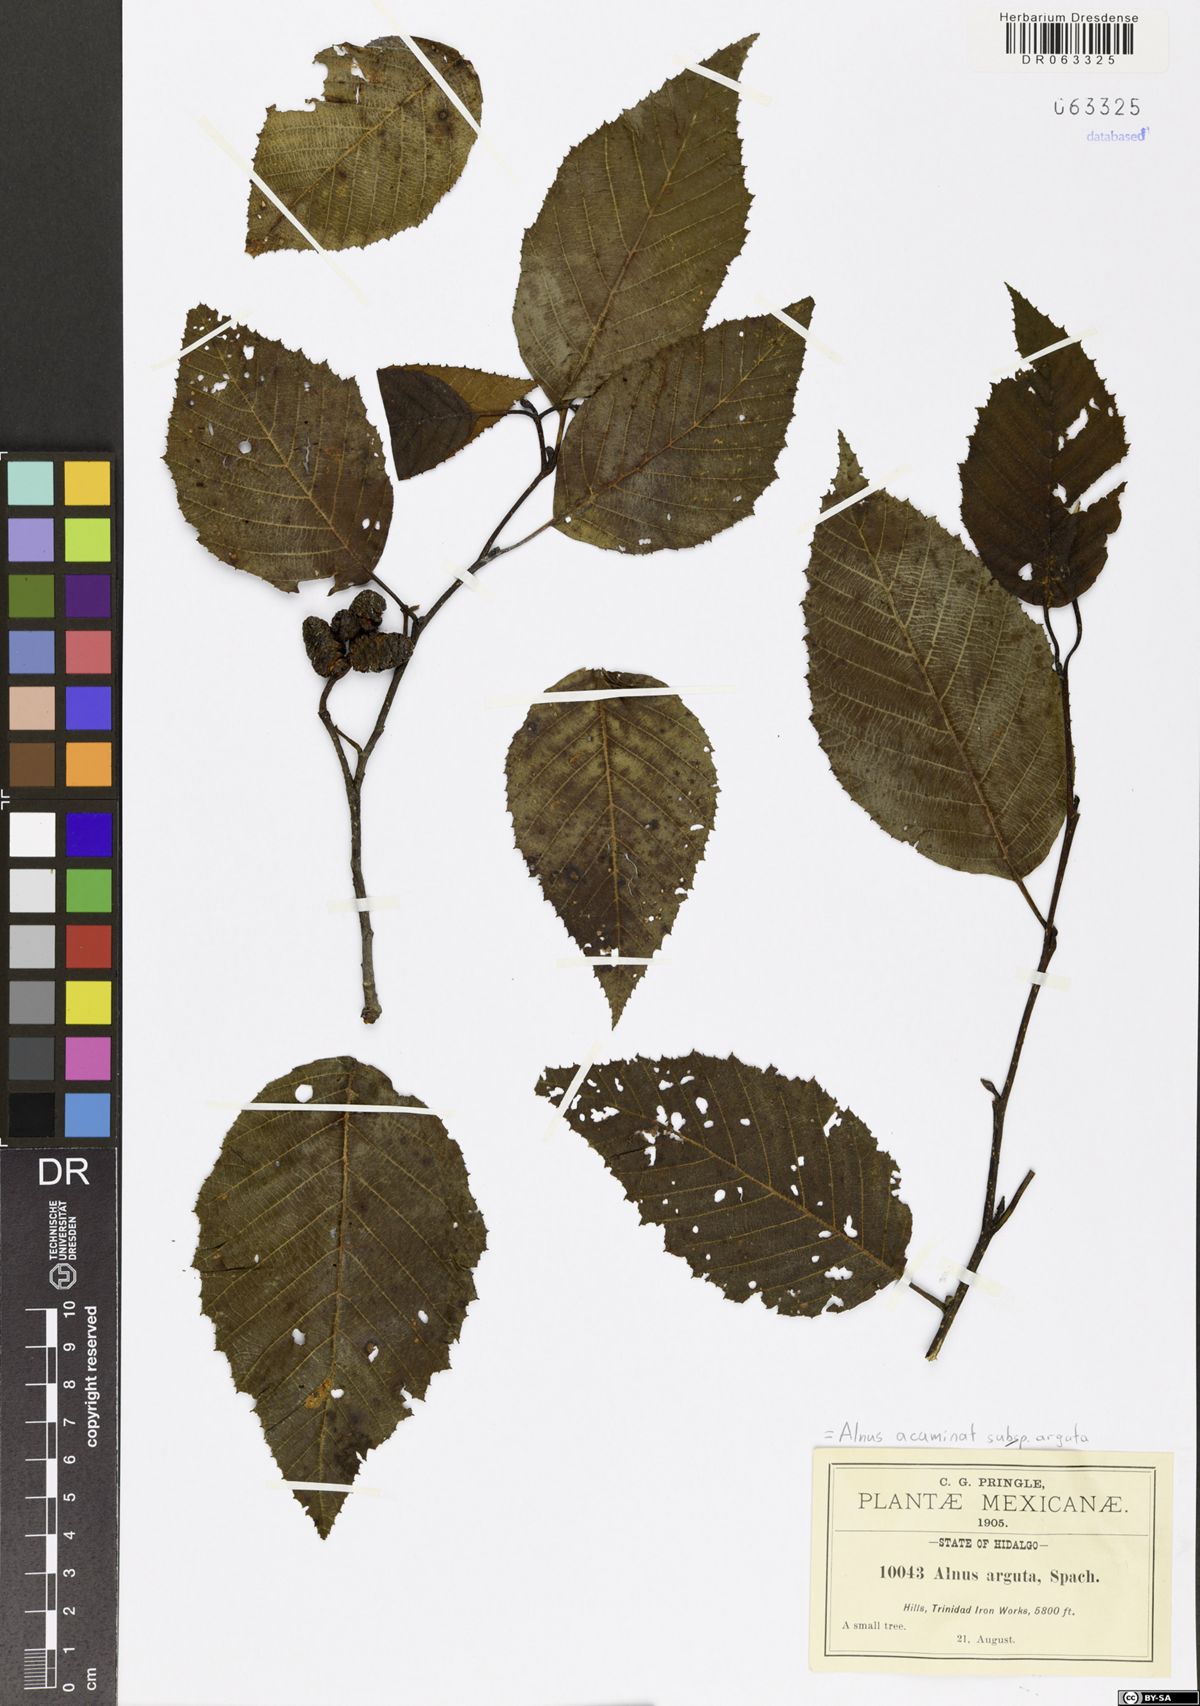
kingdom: Plantae
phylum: Tracheophyta
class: Magnoliopsida
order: Fagales
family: Betulaceae
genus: Alnus
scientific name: Alnus acuminata
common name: Alder
